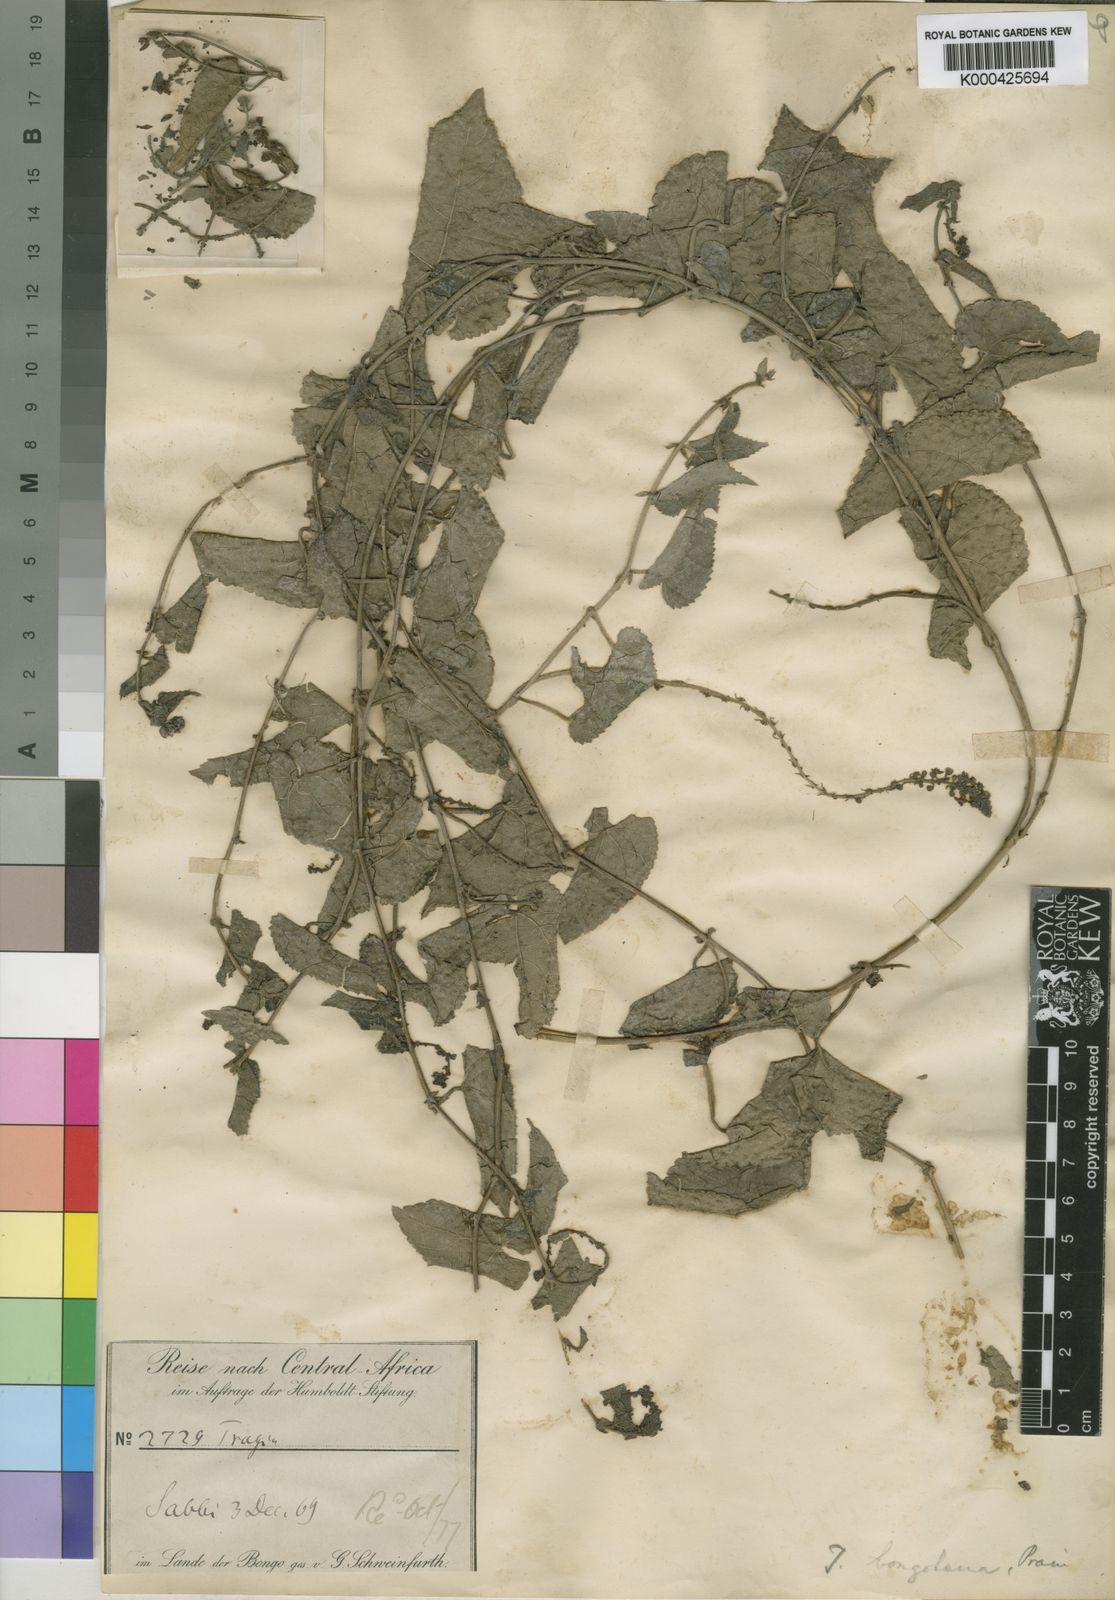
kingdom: Plantae
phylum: Tracheophyta
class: Magnoliopsida
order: Malpighiales
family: Euphorbiaceae
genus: Tragia
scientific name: Tragia bongolana
